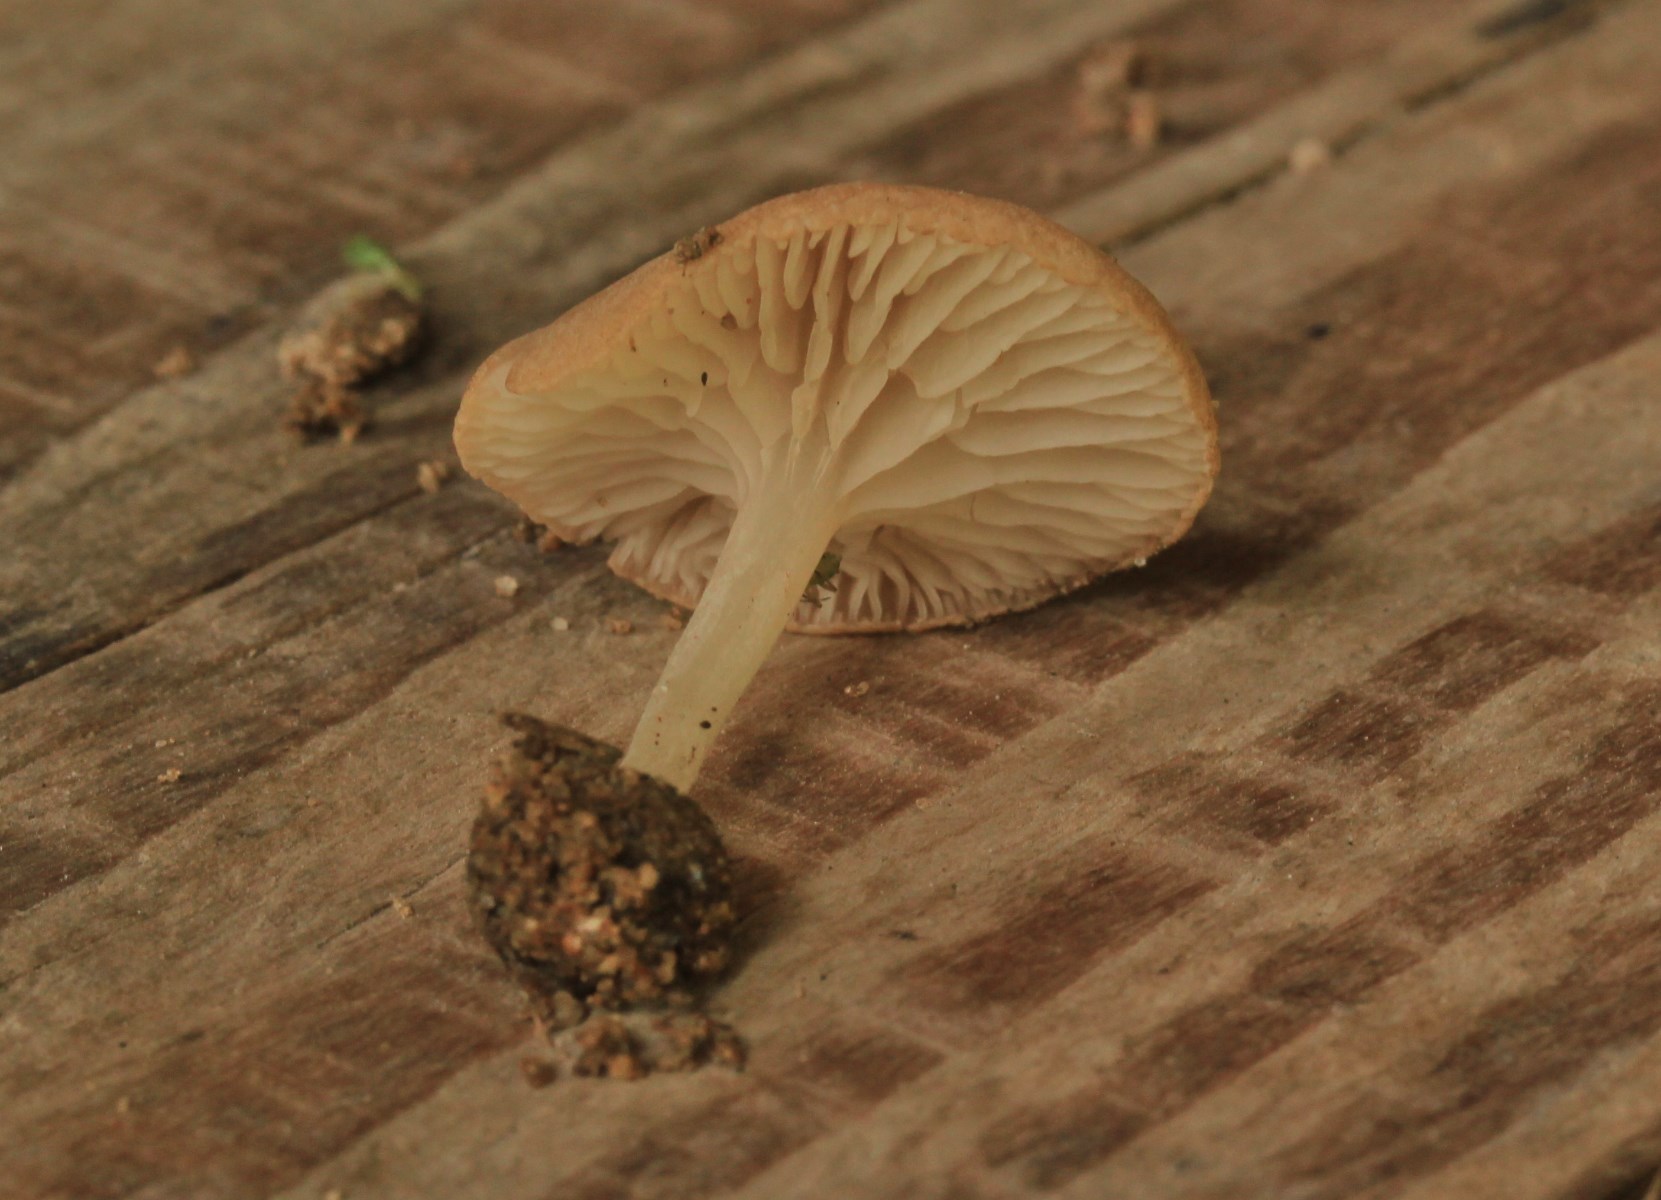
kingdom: Fungi
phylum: Basidiomycota
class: Agaricomycetes
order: Agaricales
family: Entolomataceae
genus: Entoloma
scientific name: Entoloma neglectum
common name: bleg rødblad
